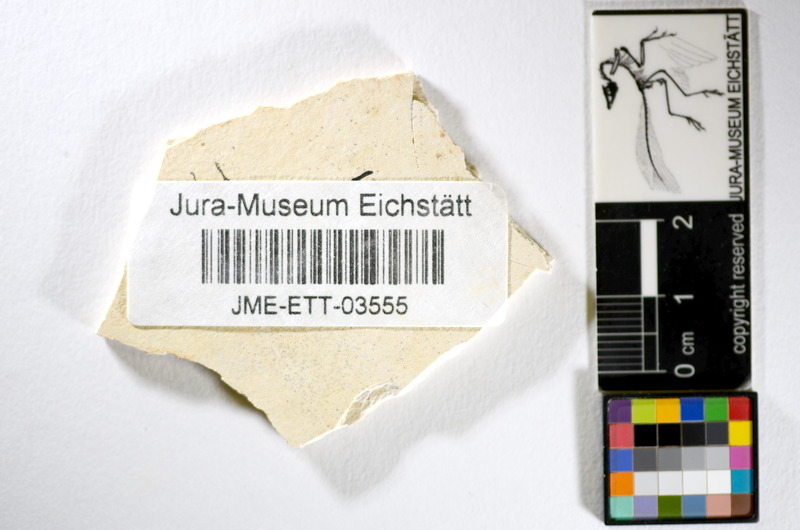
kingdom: Animalia
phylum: Chordata
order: Salmoniformes
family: Orthogonikleithridae
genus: Orthogonikleithrus
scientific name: Orthogonikleithrus hoelli
